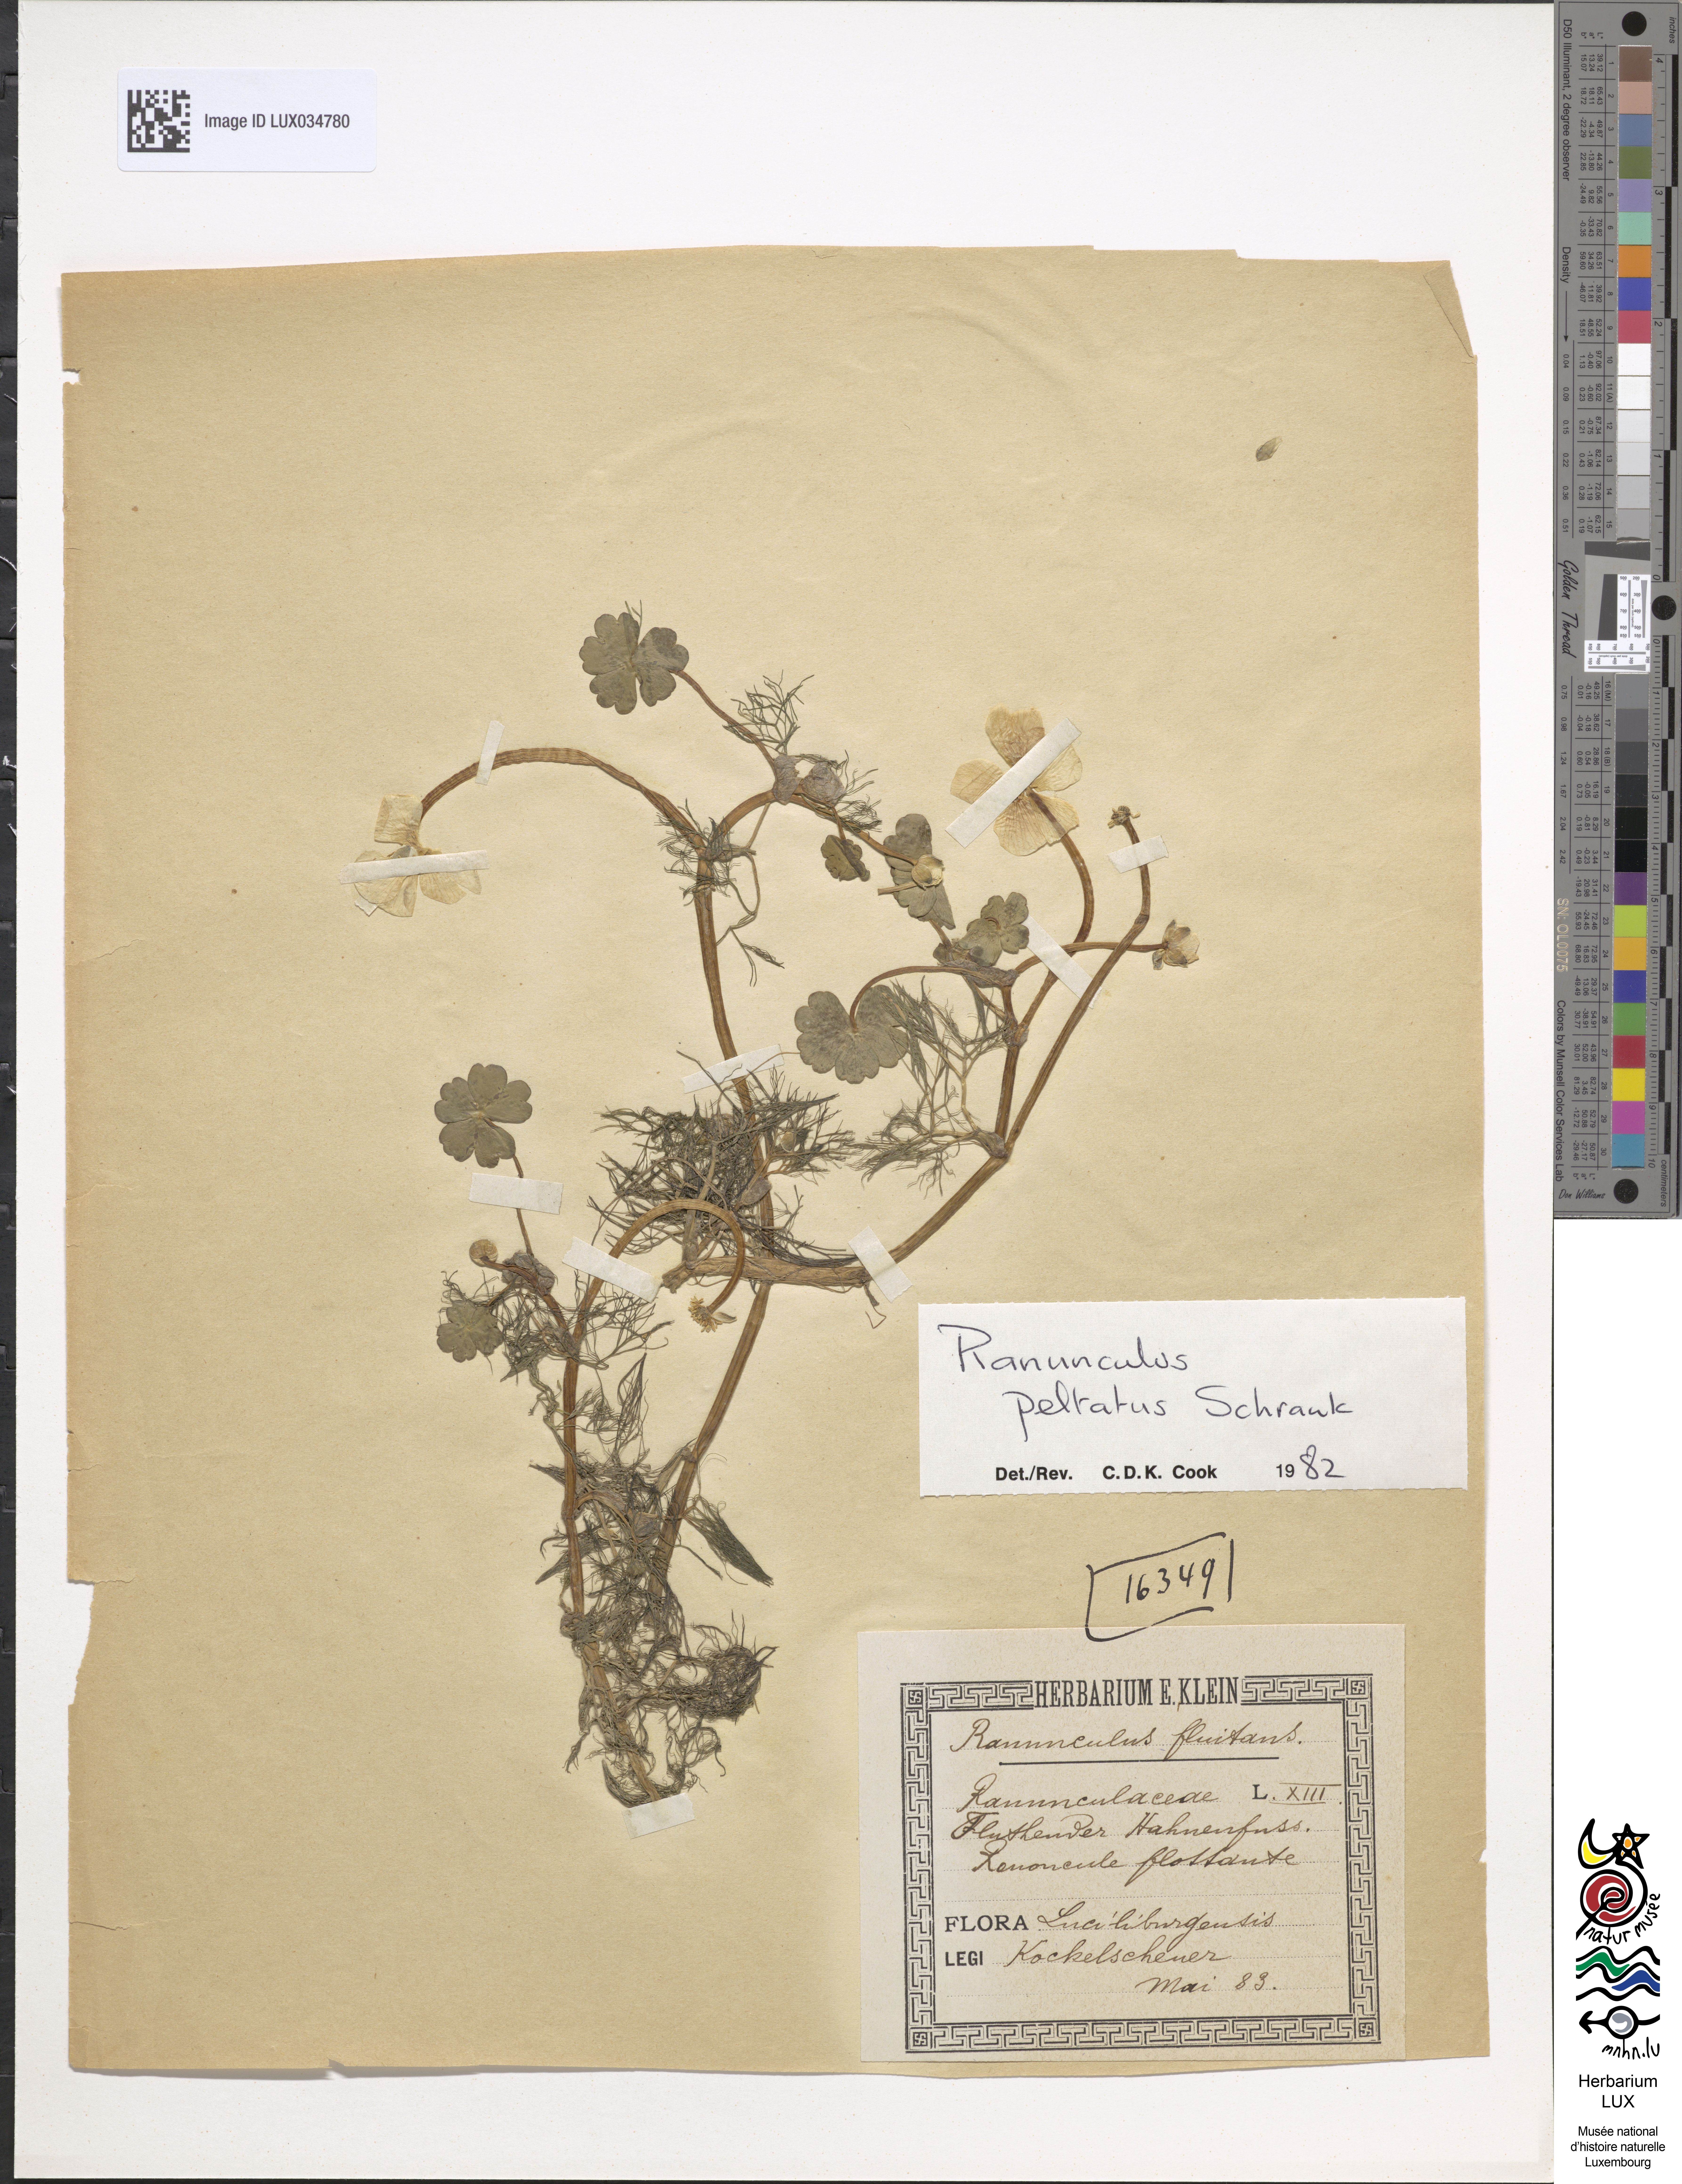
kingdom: Plantae
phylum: Tracheophyta
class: Magnoliopsida
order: Ranunculales
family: Ranunculaceae
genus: Ranunculus
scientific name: Ranunculus fluitans
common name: River water-crowfoot
